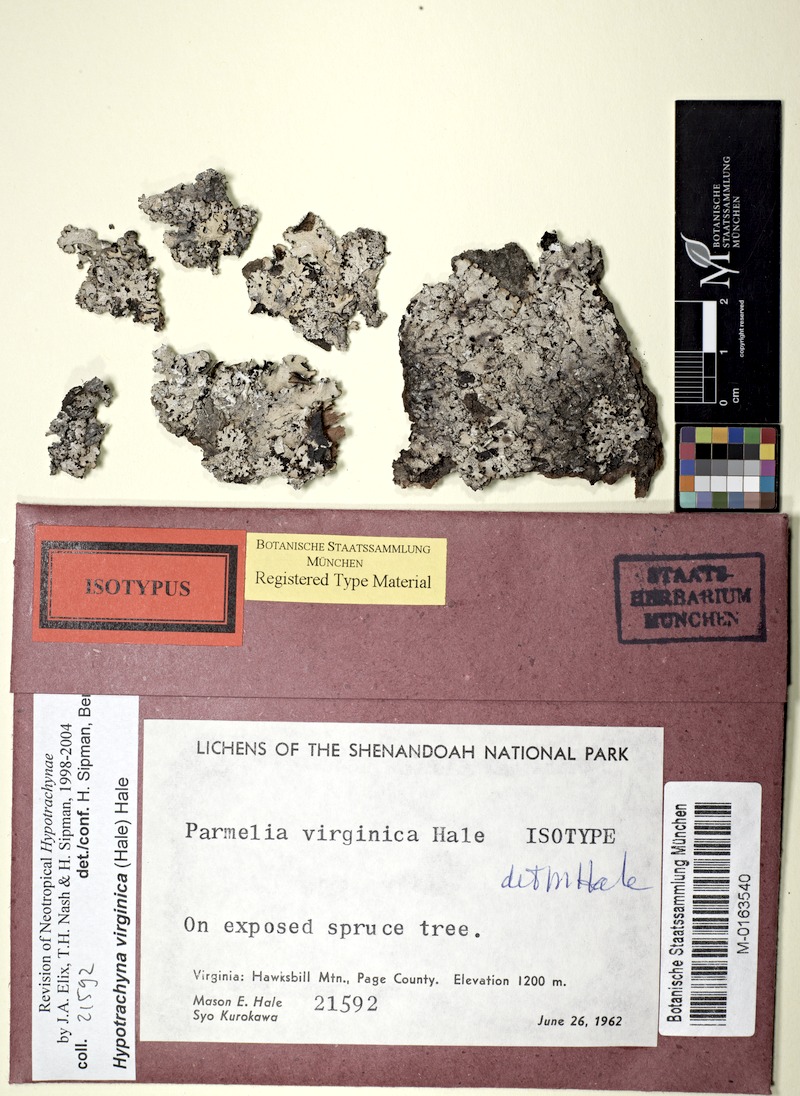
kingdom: Fungi
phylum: Ascomycota
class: Lecanoromycetes
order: Lecanorales
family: Parmeliaceae
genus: Hypotrachyna
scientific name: Hypotrachyna virginica
